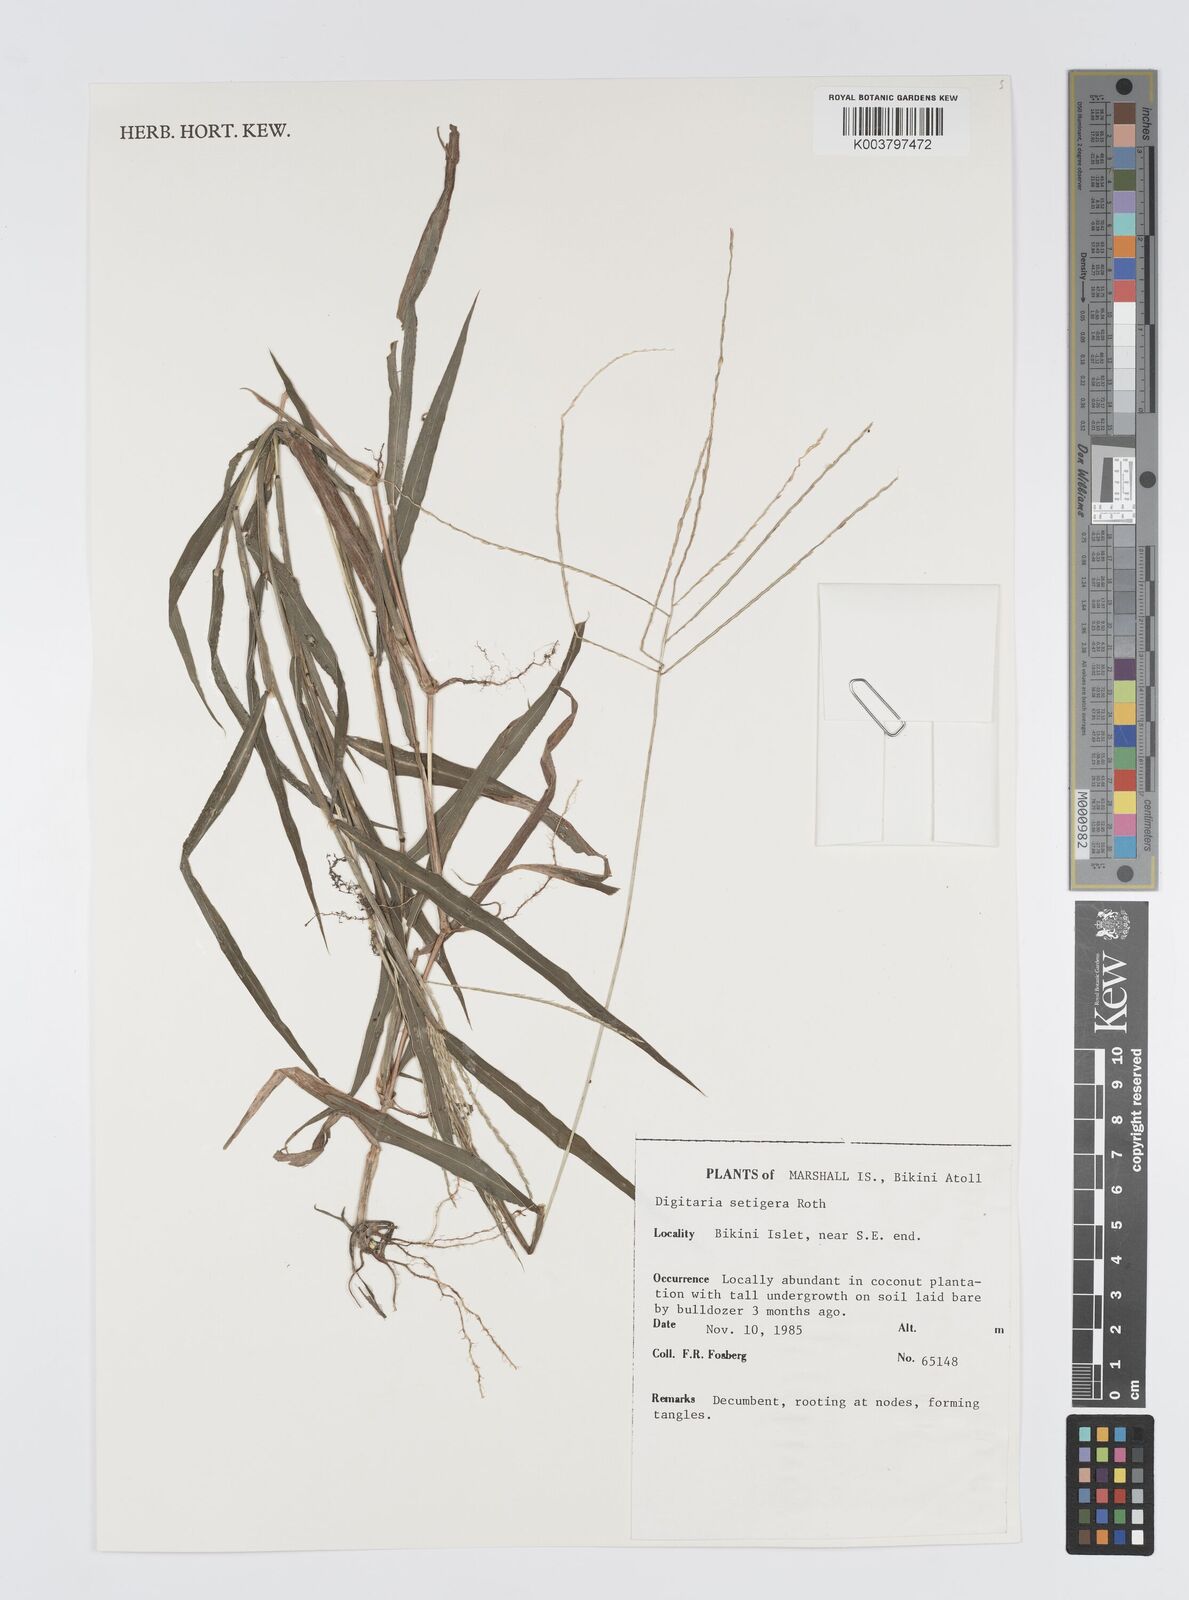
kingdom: Plantae
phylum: Tracheophyta
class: Liliopsida
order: Poales
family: Poaceae
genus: Digitaria
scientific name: Digitaria setigera
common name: East indian crabgrass
